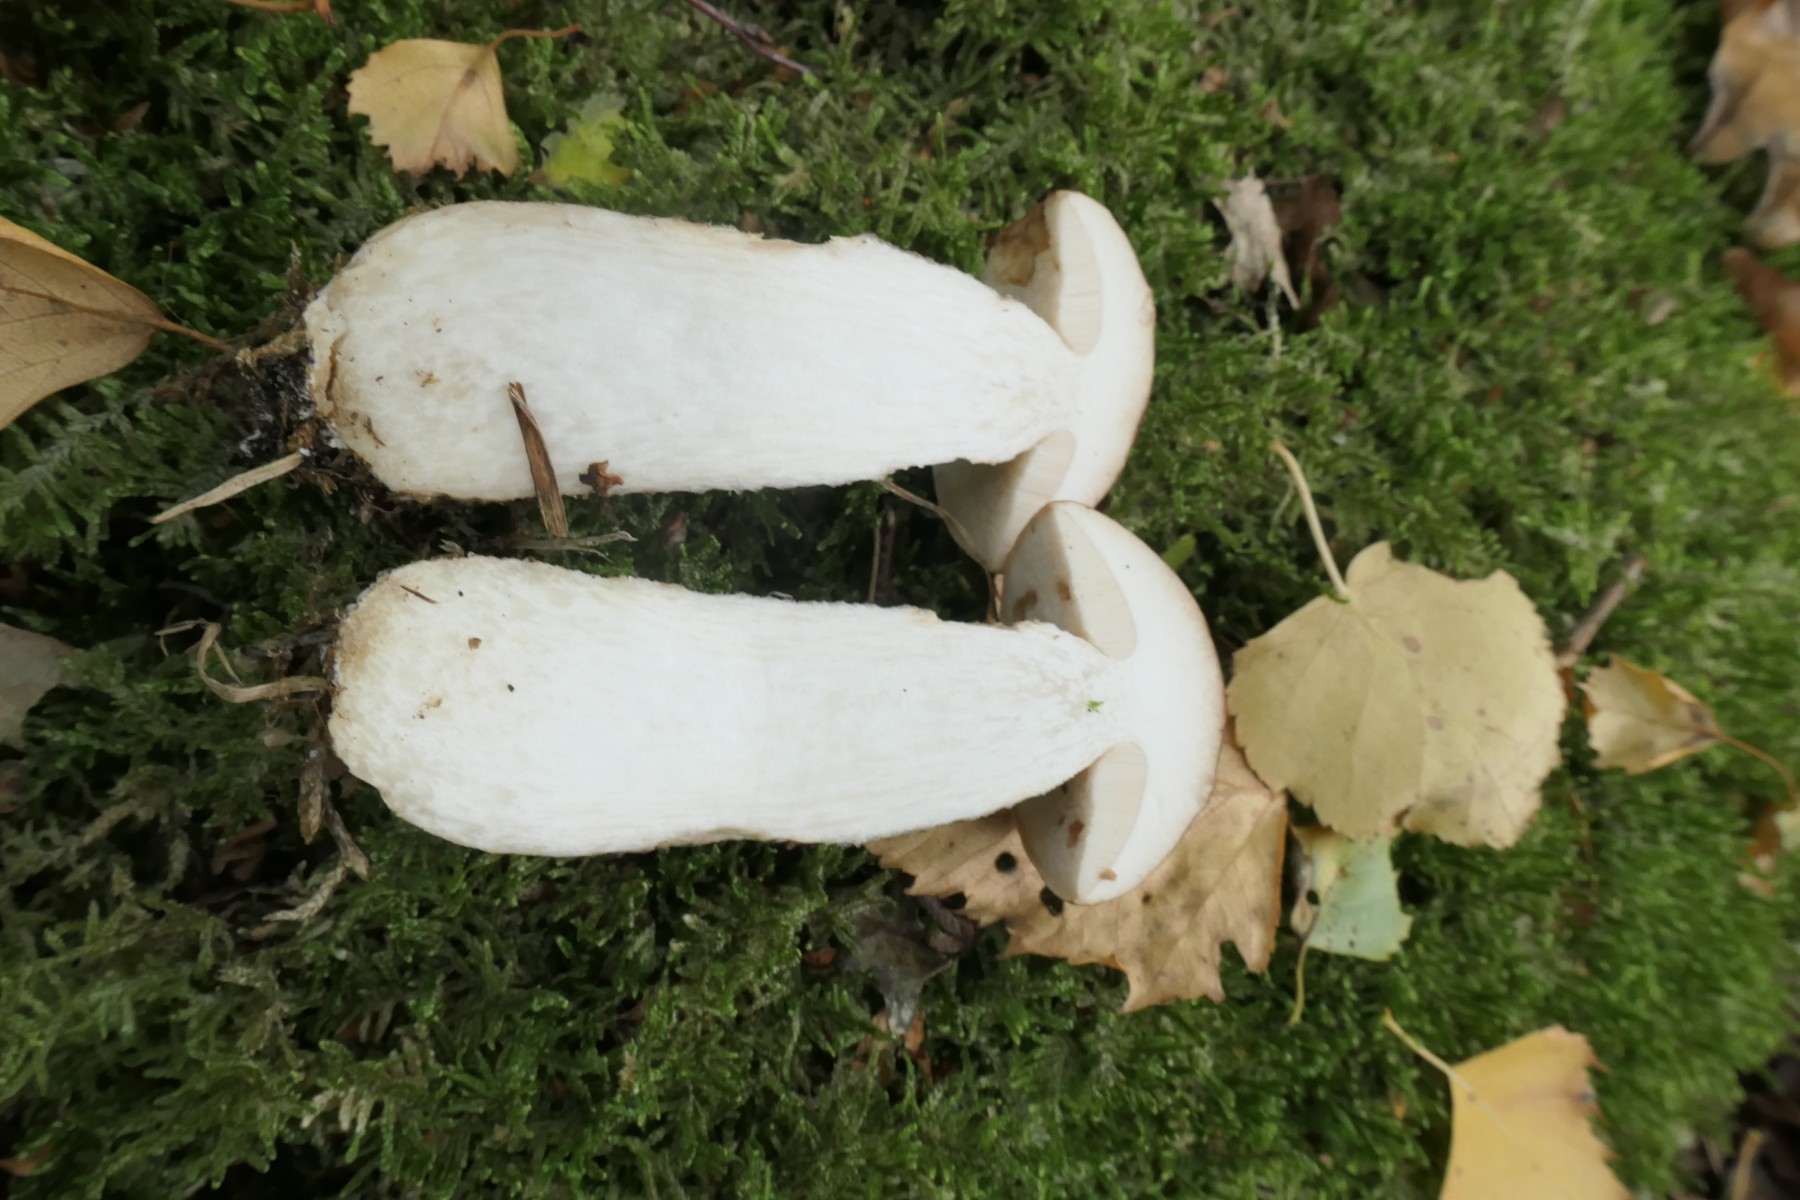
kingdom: Fungi
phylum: Basidiomycota
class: Agaricomycetes
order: Boletales
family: Boletaceae
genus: Leccinum
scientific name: Leccinum scabrum
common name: brun skælrørhat
